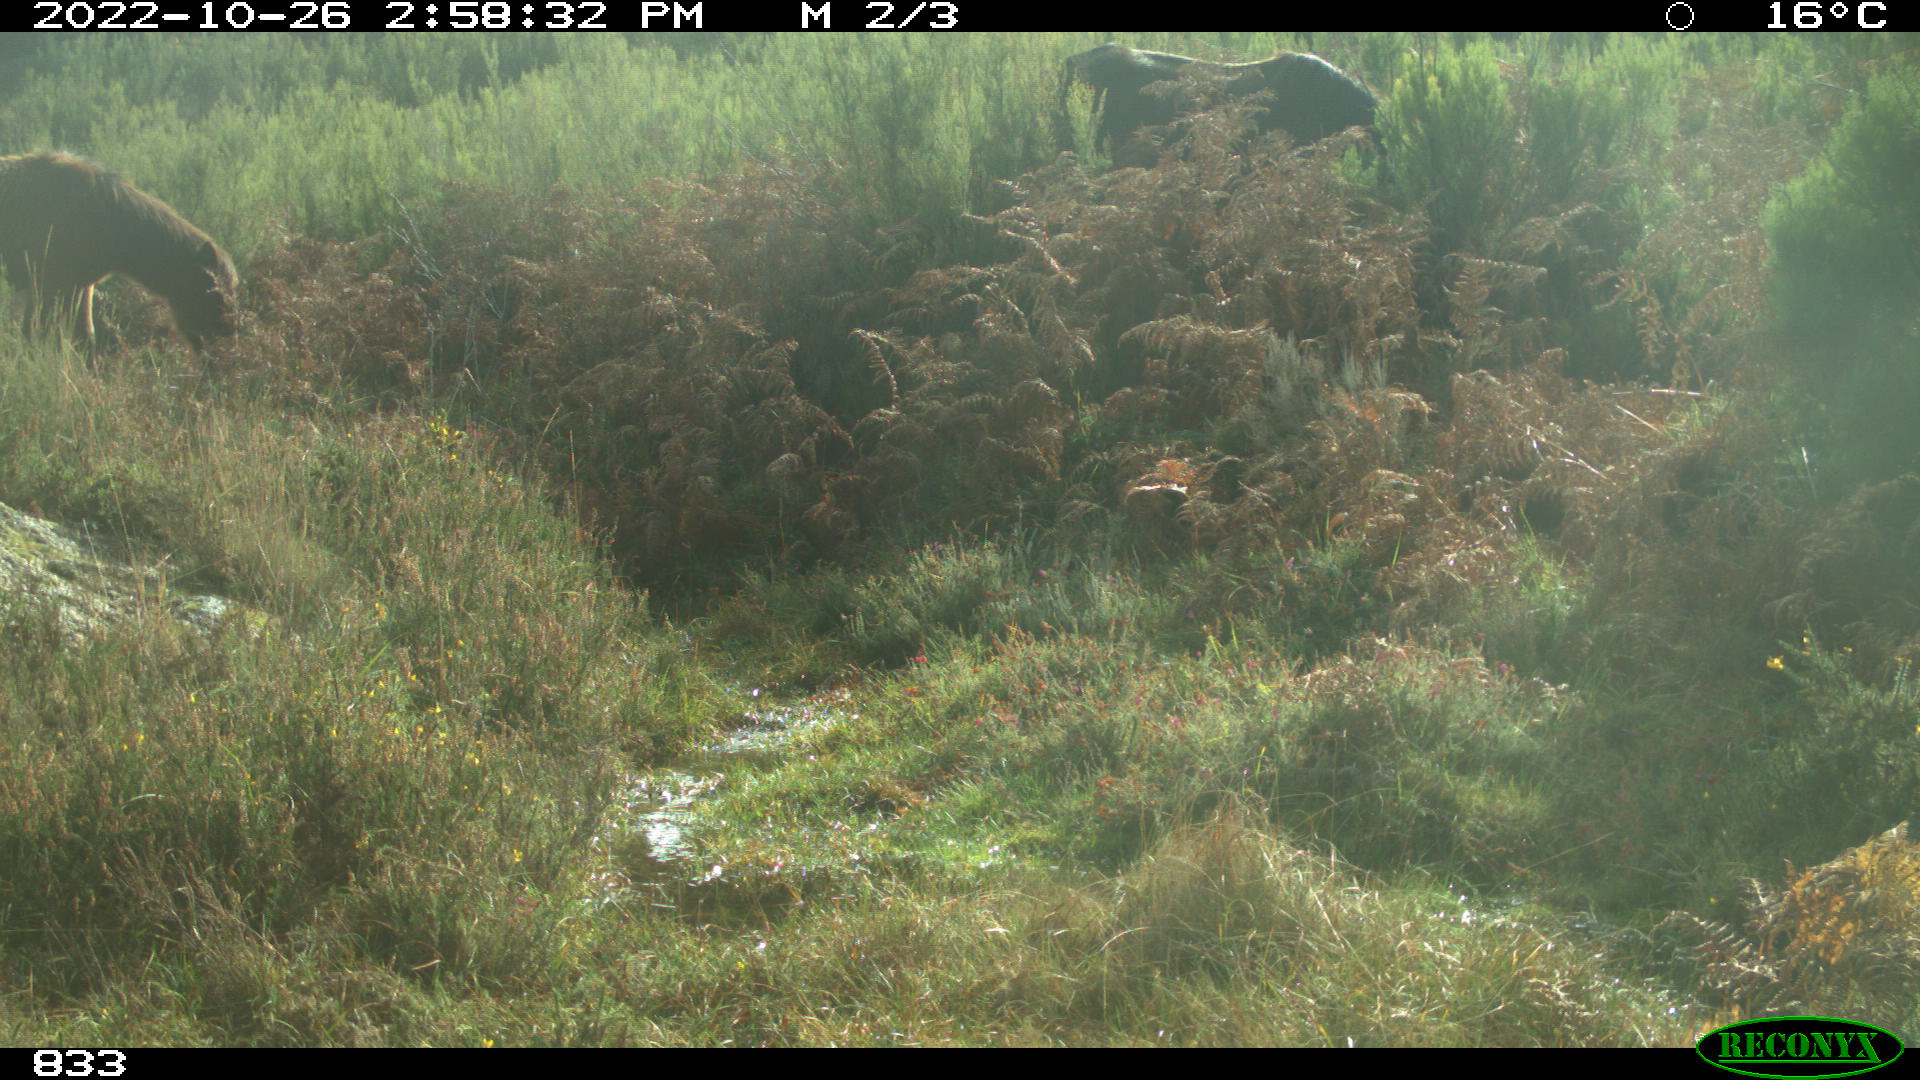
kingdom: Animalia
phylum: Chordata
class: Mammalia
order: Perissodactyla
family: Equidae
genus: Equus
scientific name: Equus caballus
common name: Horse
